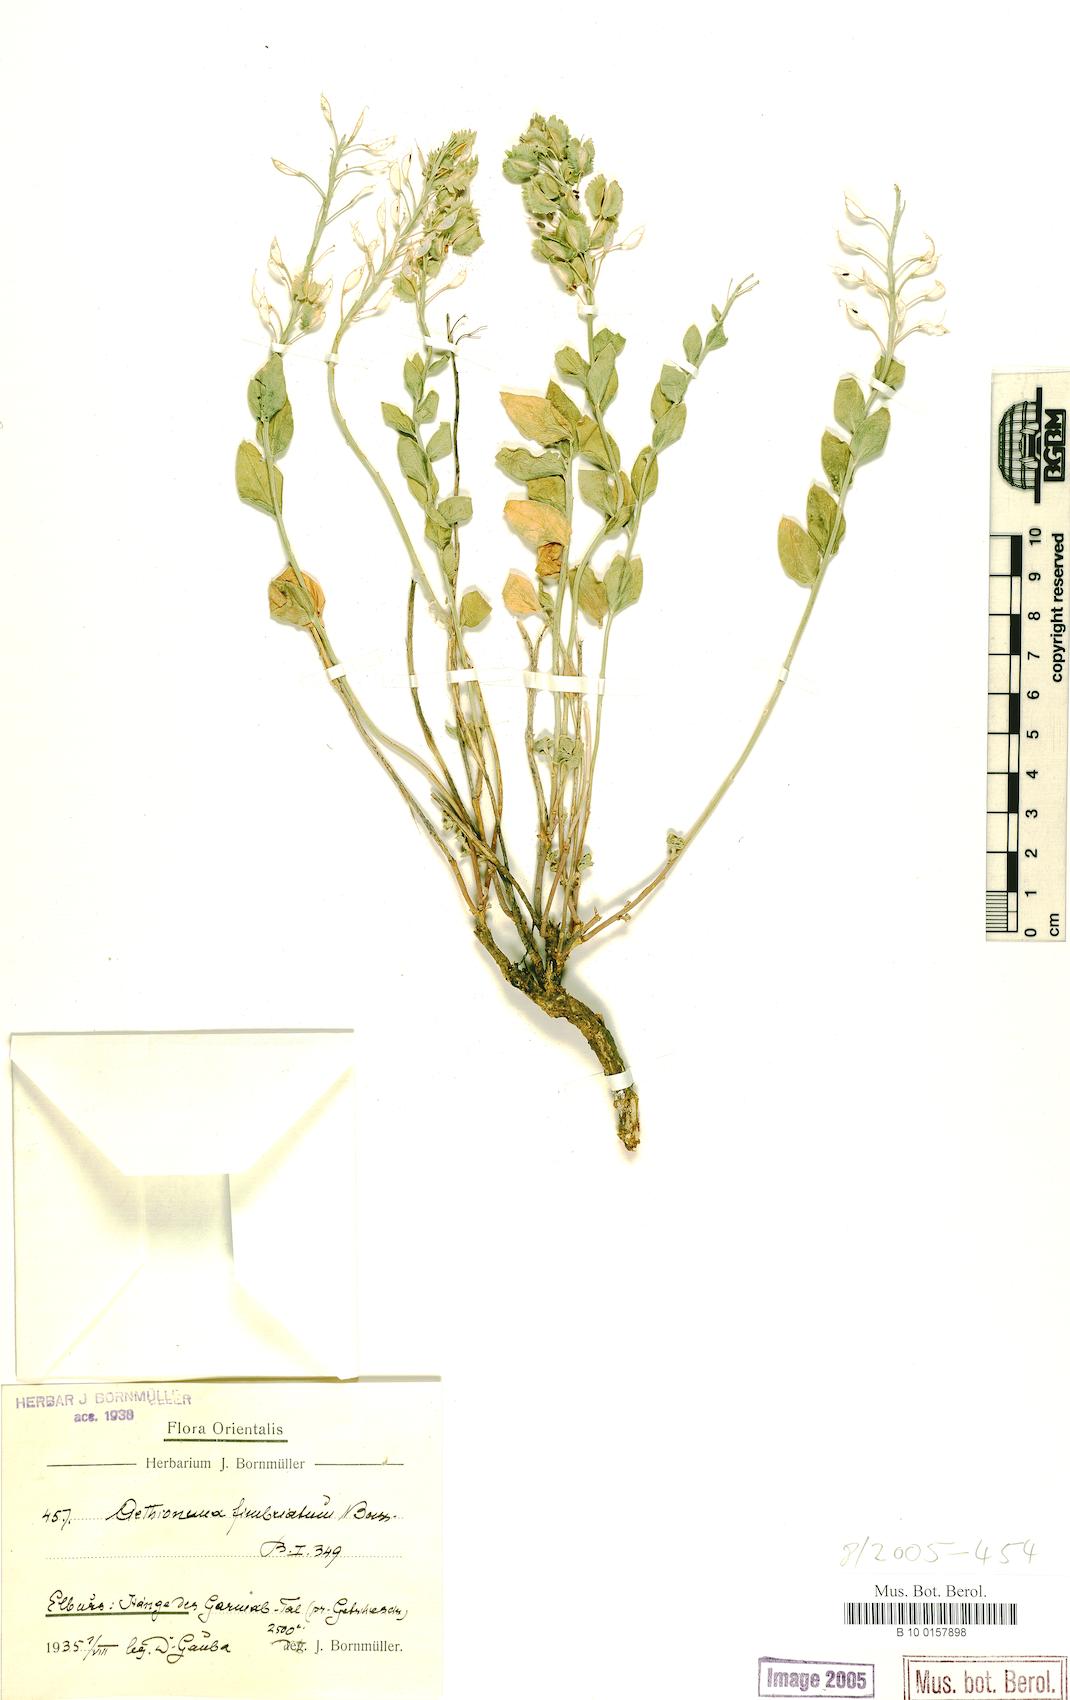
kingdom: Plantae
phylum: Tracheophyta
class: Magnoliopsida
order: Brassicales
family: Brassicaceae
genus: Aethionema
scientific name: Aethionema fimbriatum
